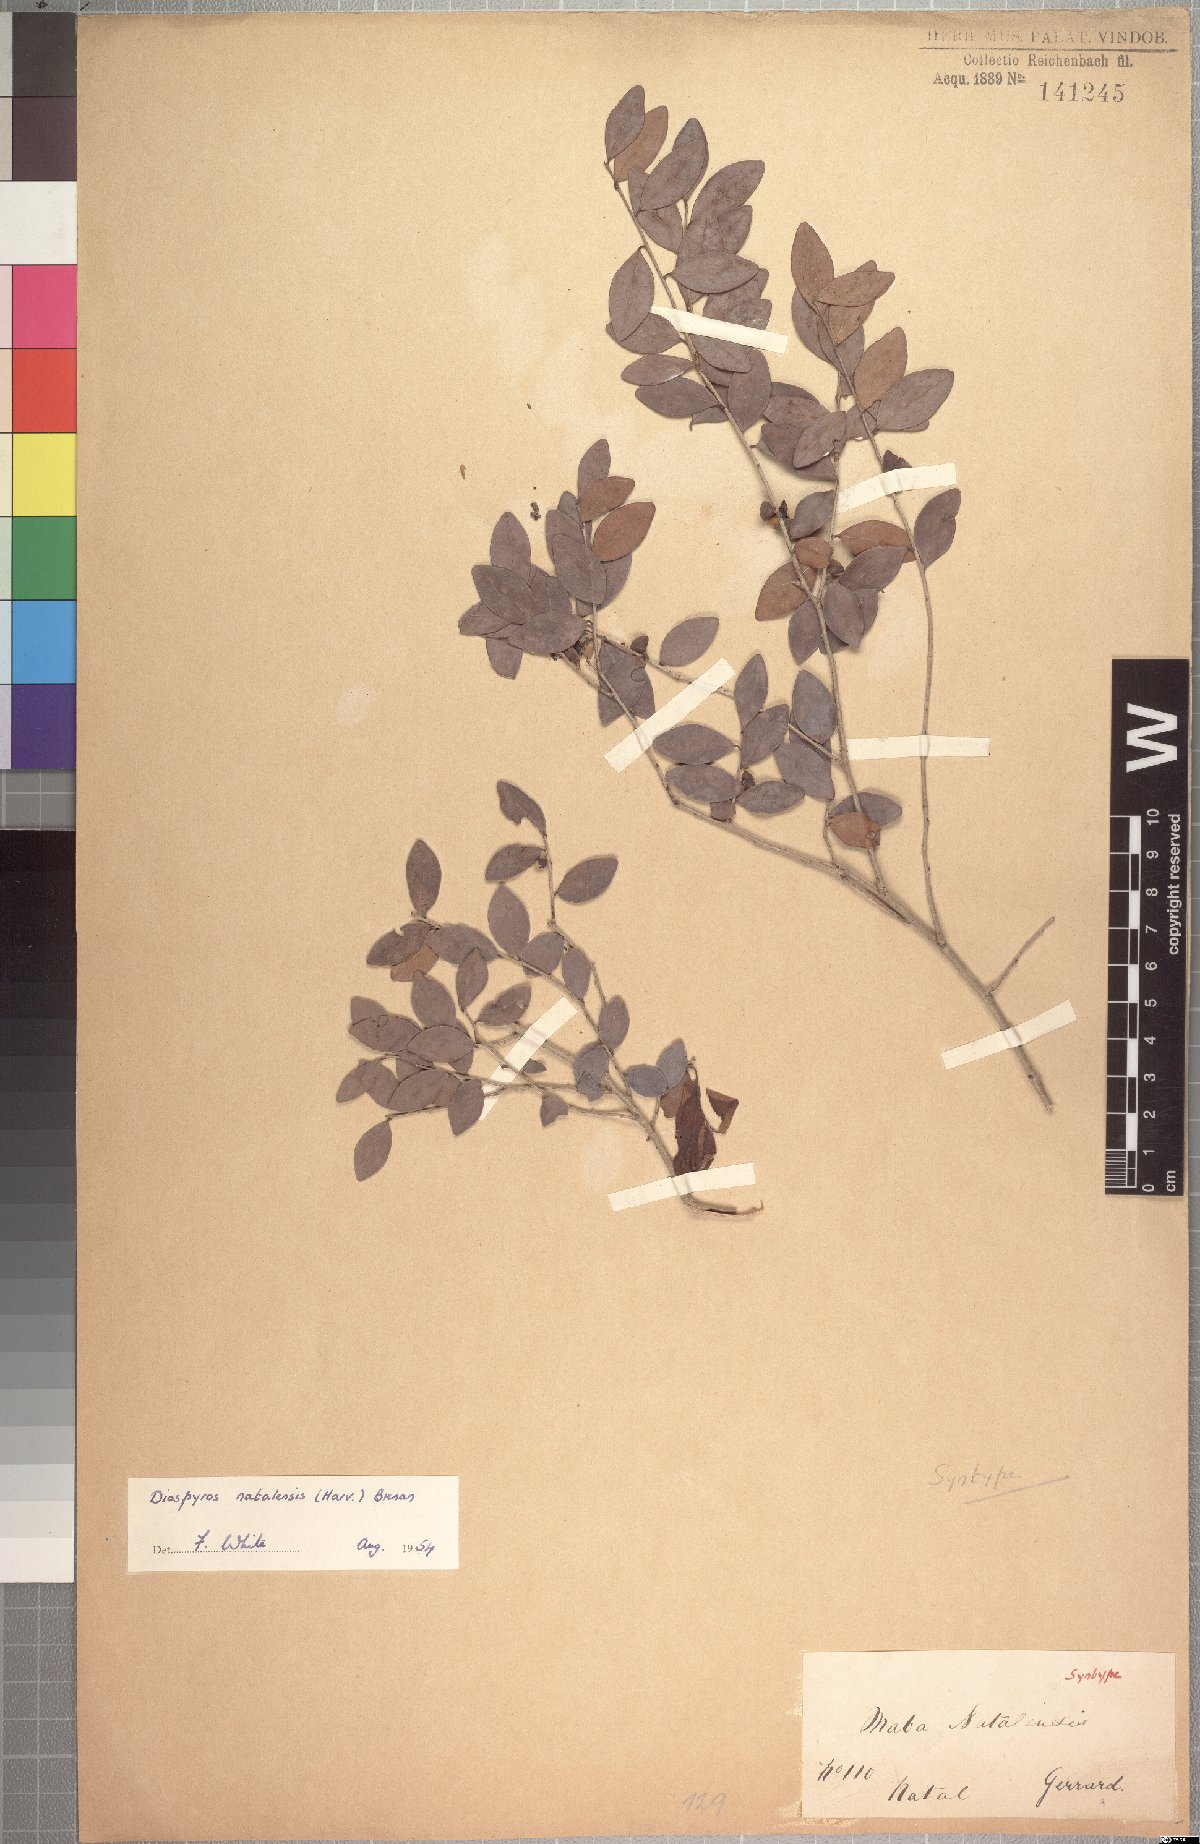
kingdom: Plantae
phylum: Tracheophyta
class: Magnoliopsida
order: Ericales
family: Ebenaceae
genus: Diospyros
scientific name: Diospyros natalensis
